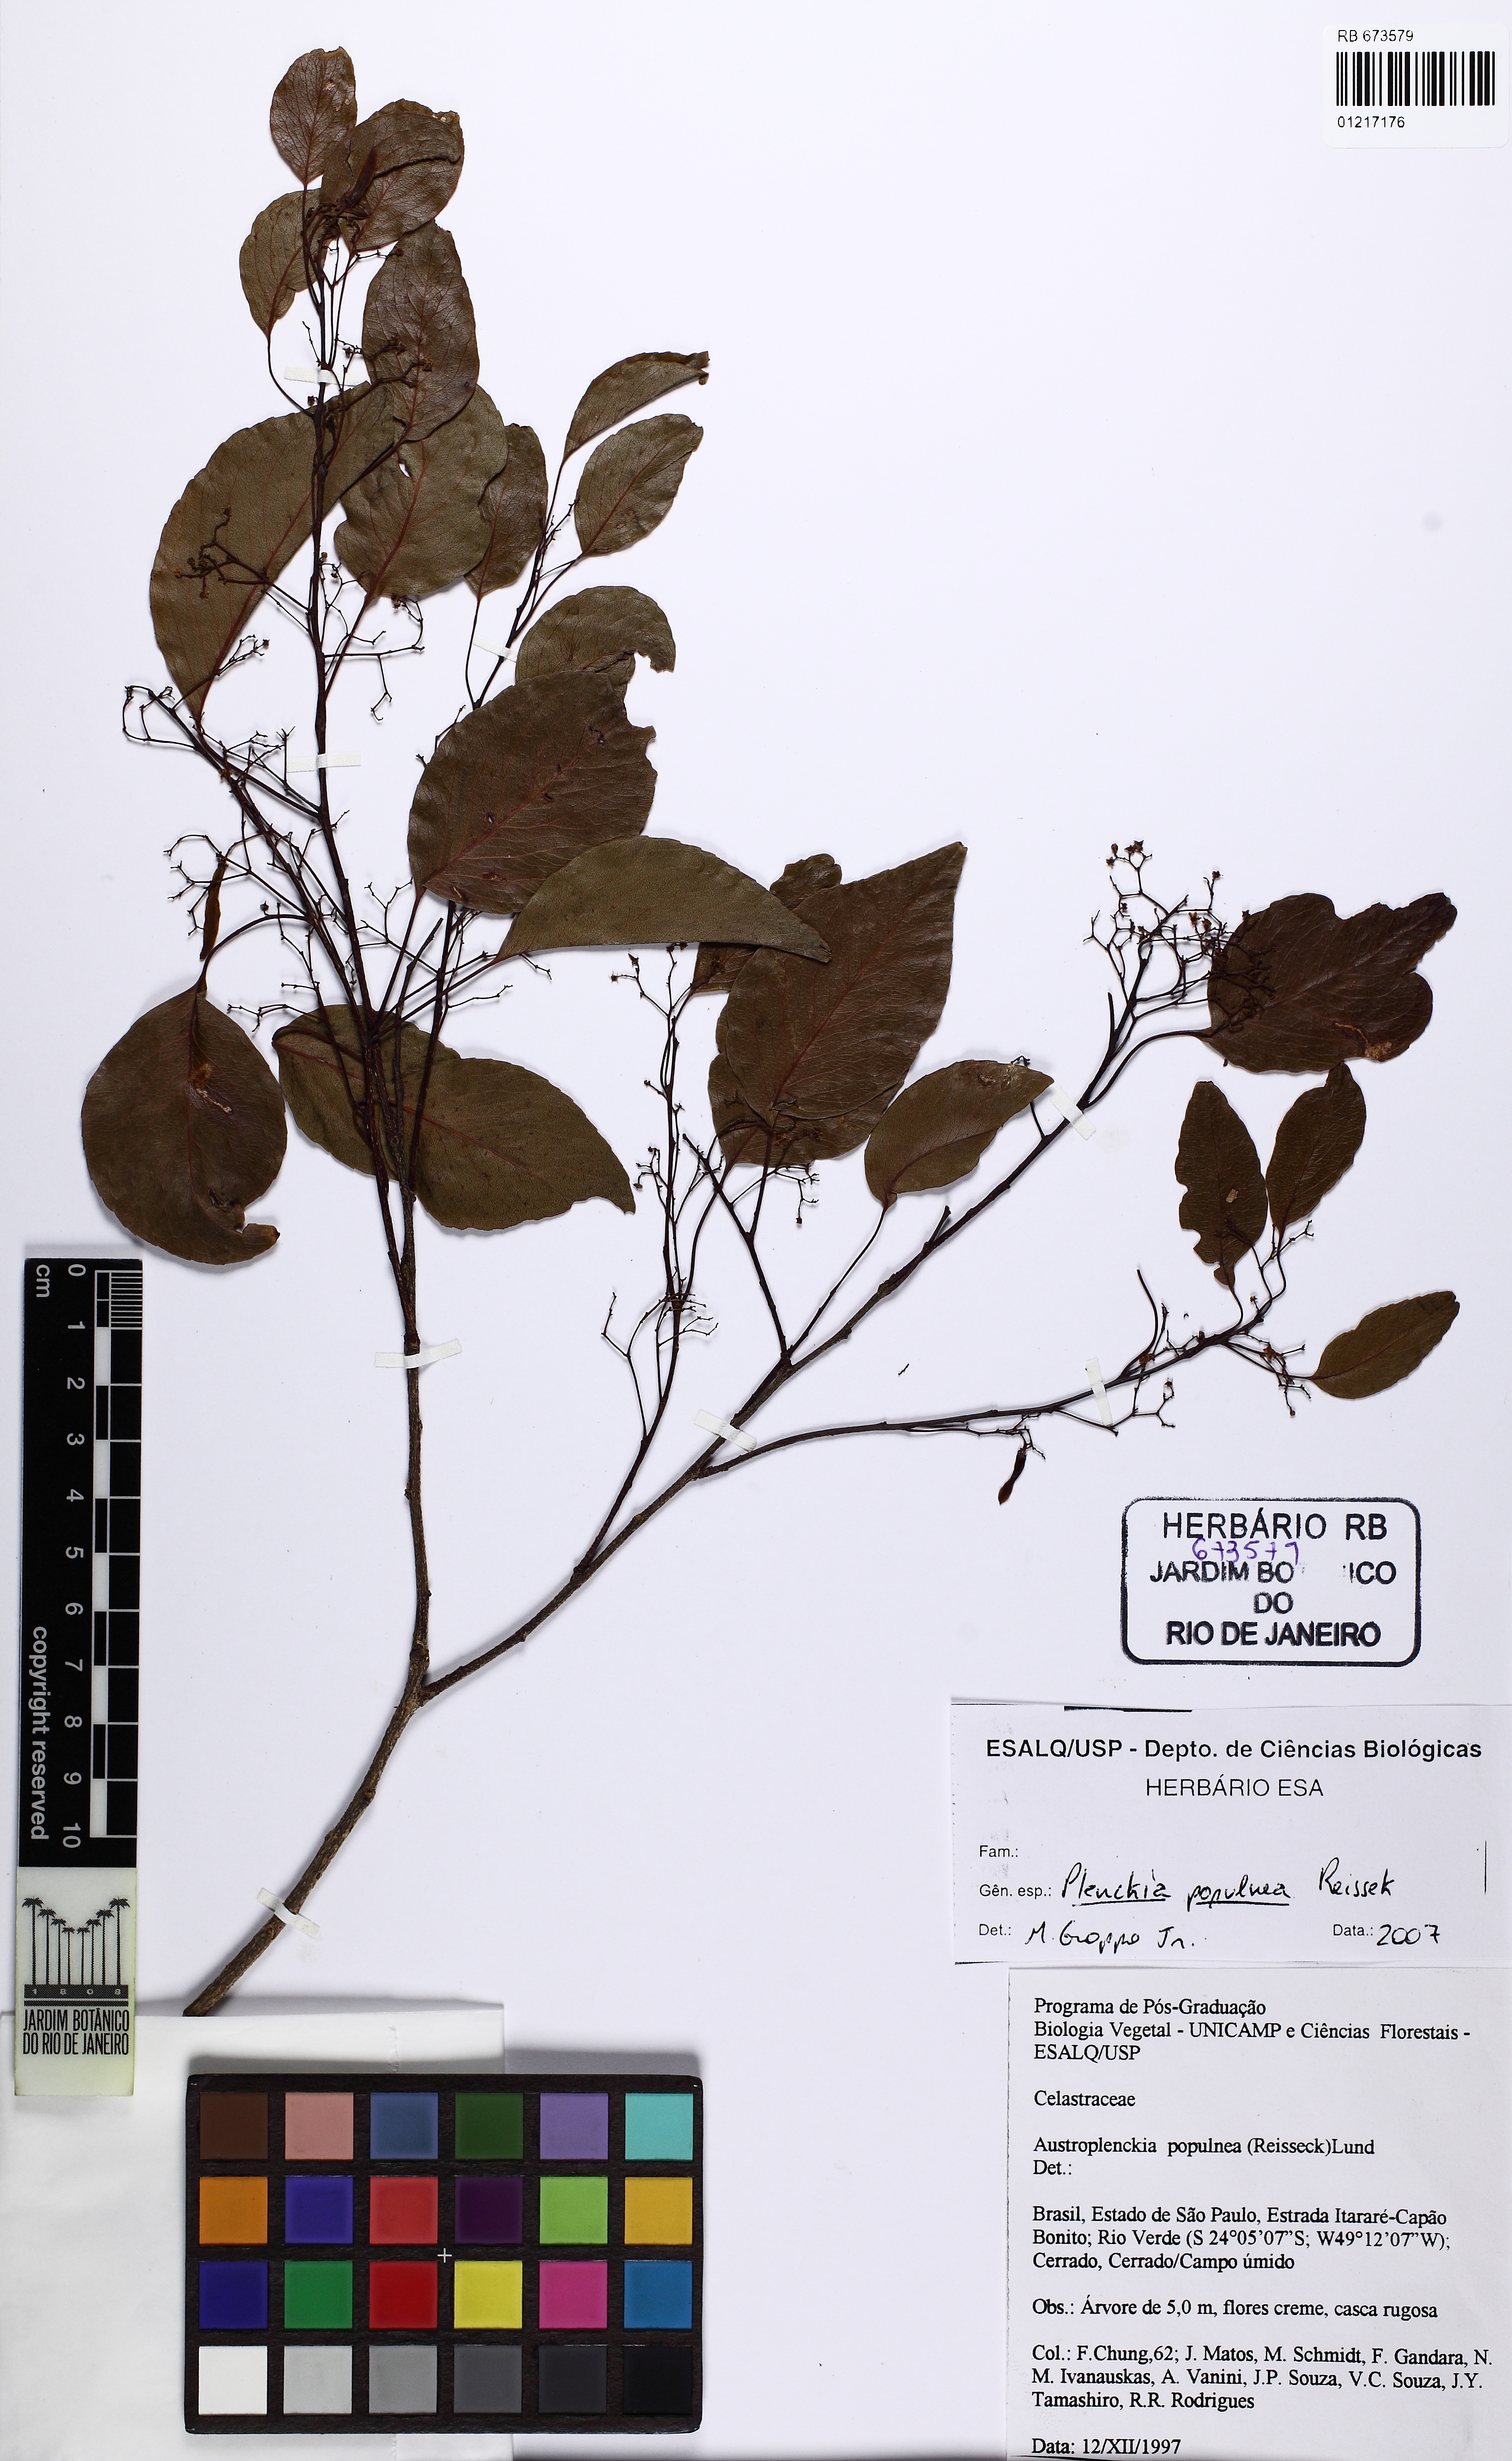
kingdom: Plantae
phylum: Tracheophyta
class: Magnoliopsida
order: Celastrales
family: Celastraceae
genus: Plenckia
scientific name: Plenckia populnea
